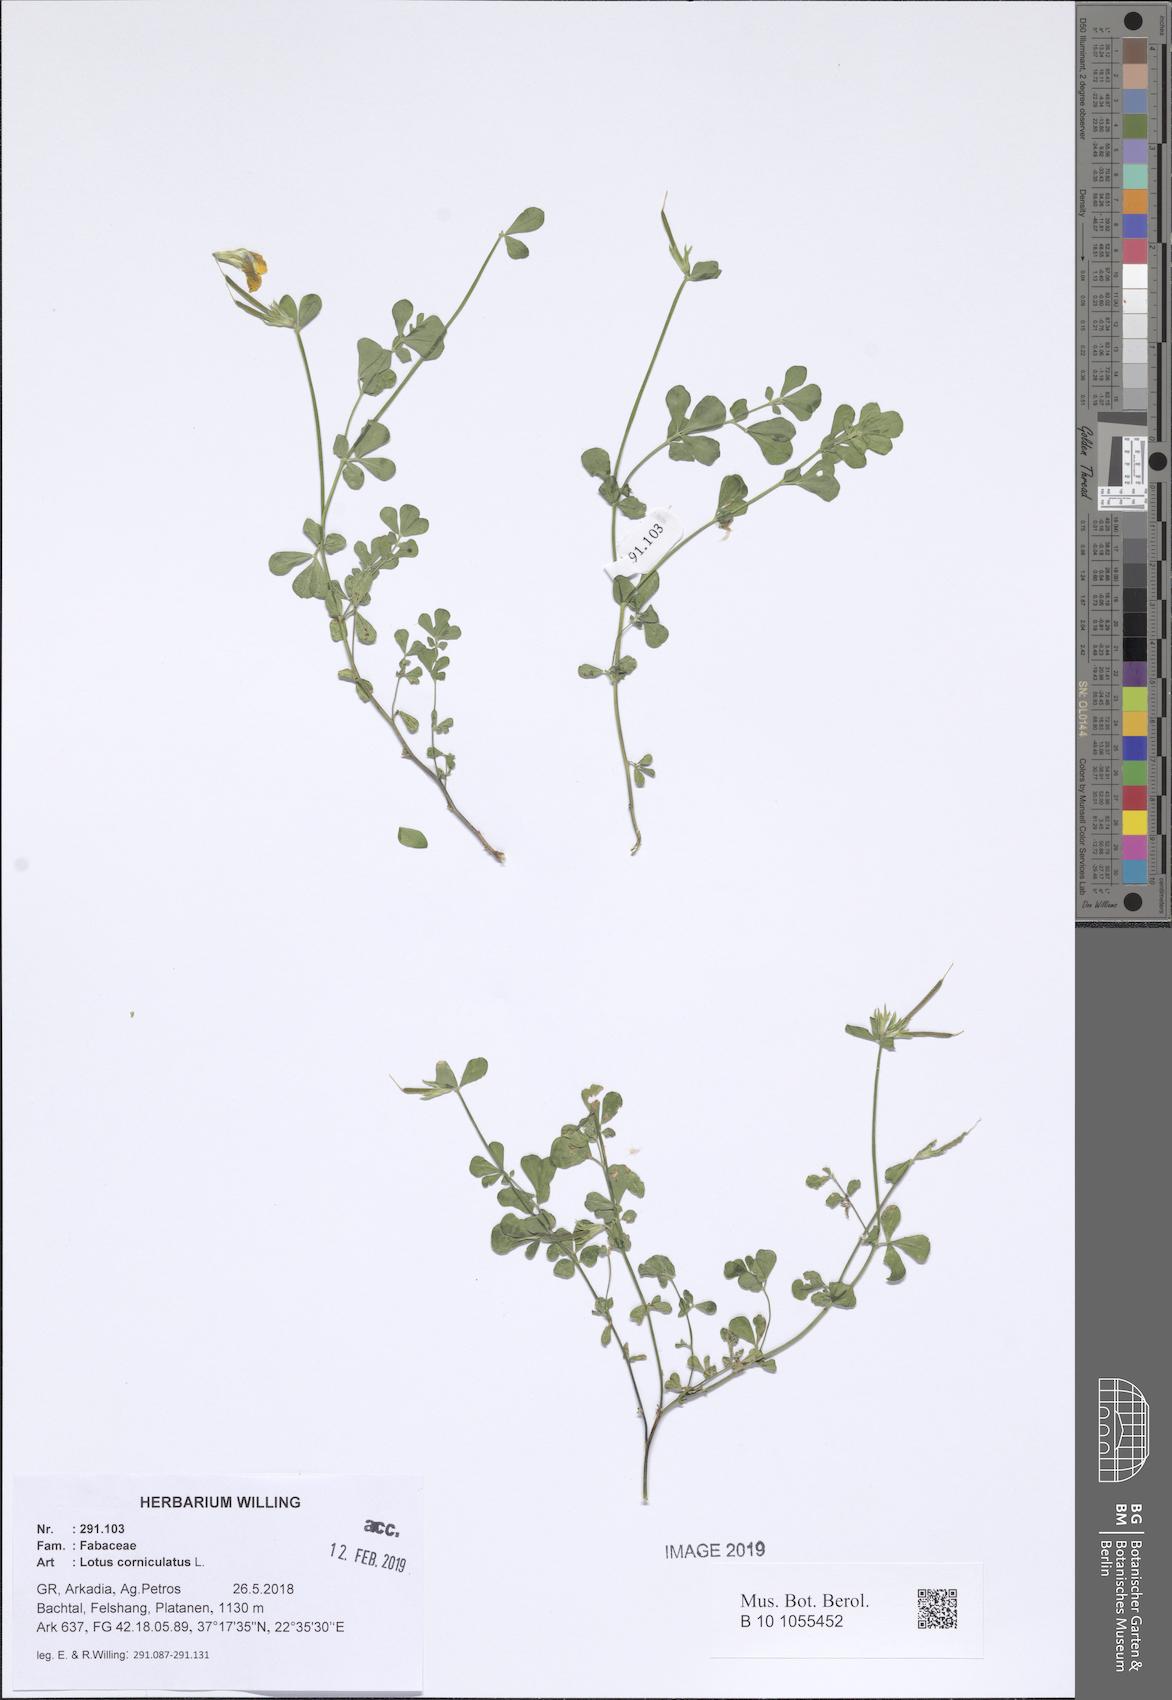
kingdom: Plantae
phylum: Tracheophyta
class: Magnoliopsida
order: Fabales
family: Fabaceae
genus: Lotus
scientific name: Lotus corniculatus
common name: Common bird's-foot-trefoil
